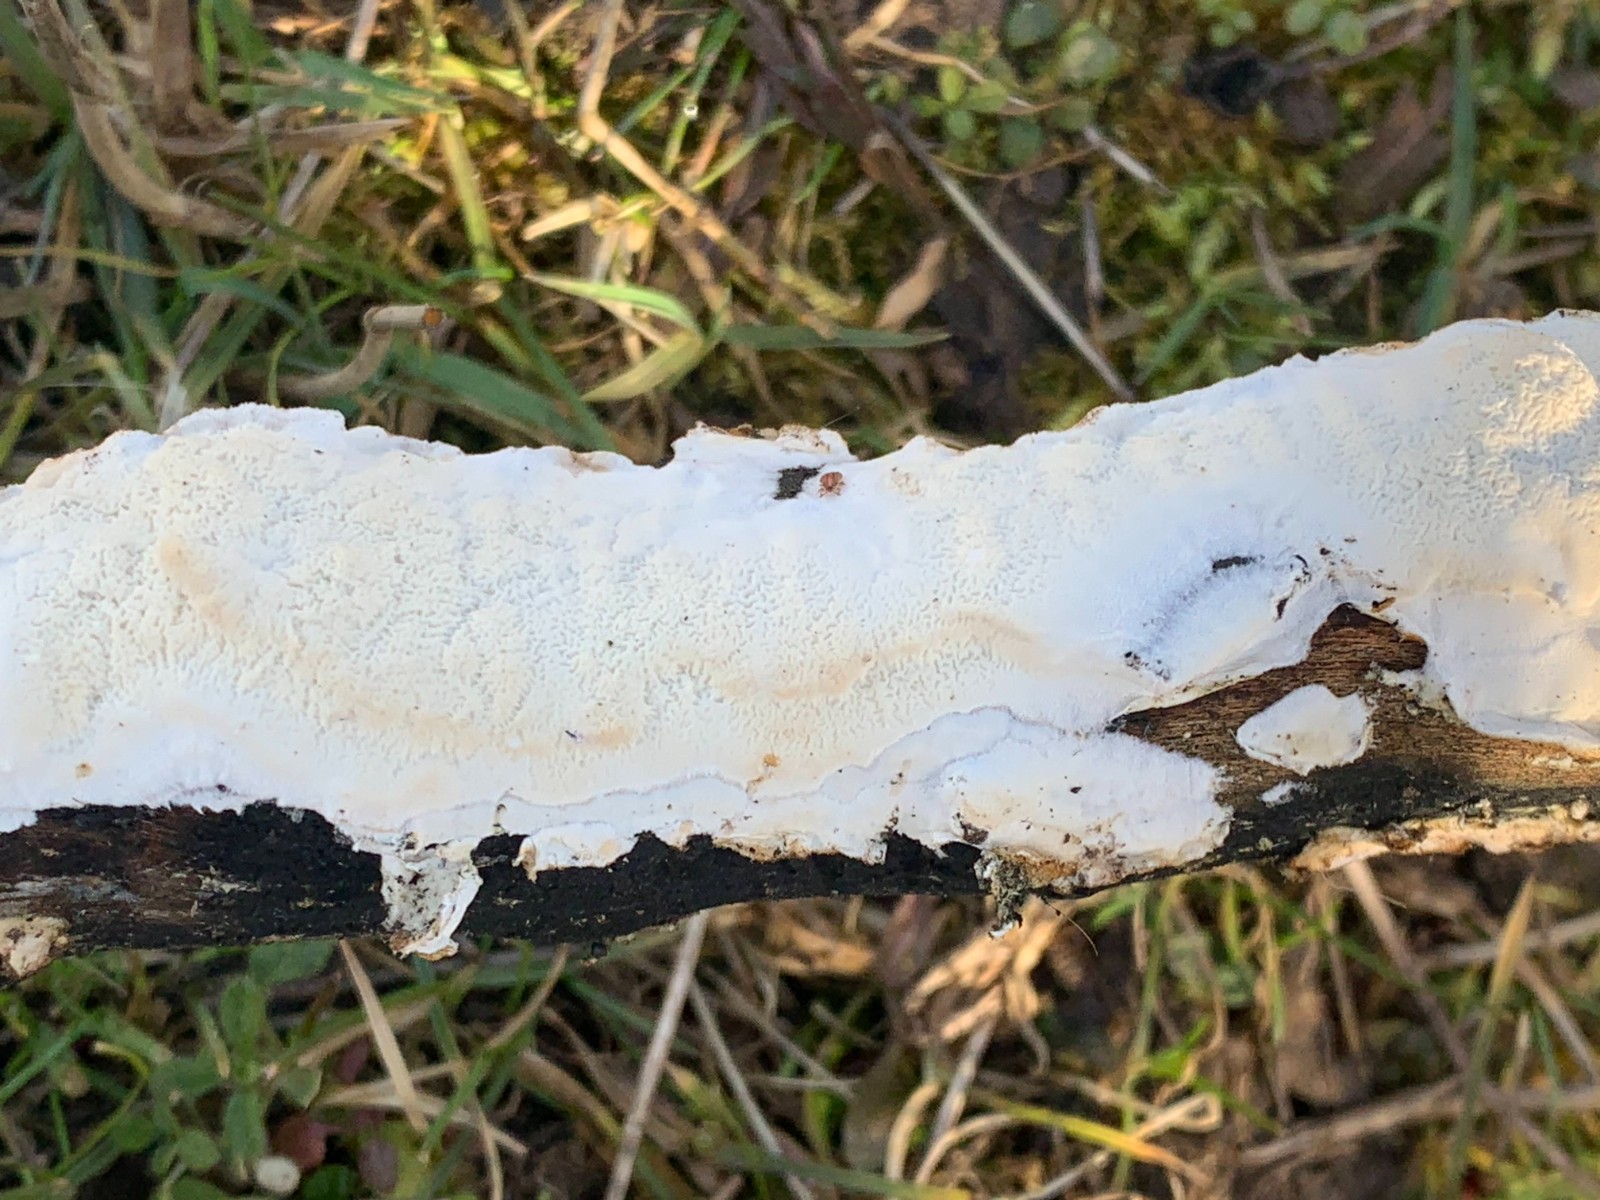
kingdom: Fungi
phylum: Basidiomycota
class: Agaricomycetes
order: Polyporales
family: Irpicaceae
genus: Byssomerulius
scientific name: Byssomerulius corium
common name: læder-åresvamp
